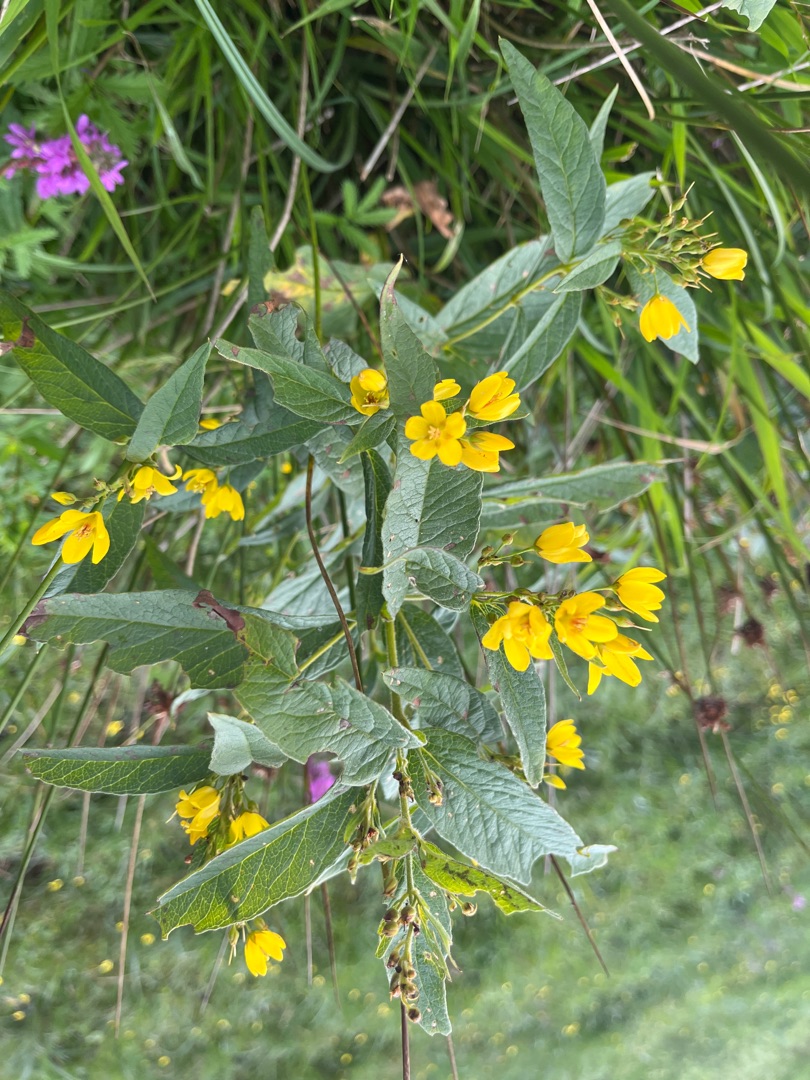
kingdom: Plantae
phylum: Tracheophyta
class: Magnoliopsida
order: Ericales
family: Primulaceae
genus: Lysimachia
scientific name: Lysimachia vulgaris
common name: Almindelig fredløs
